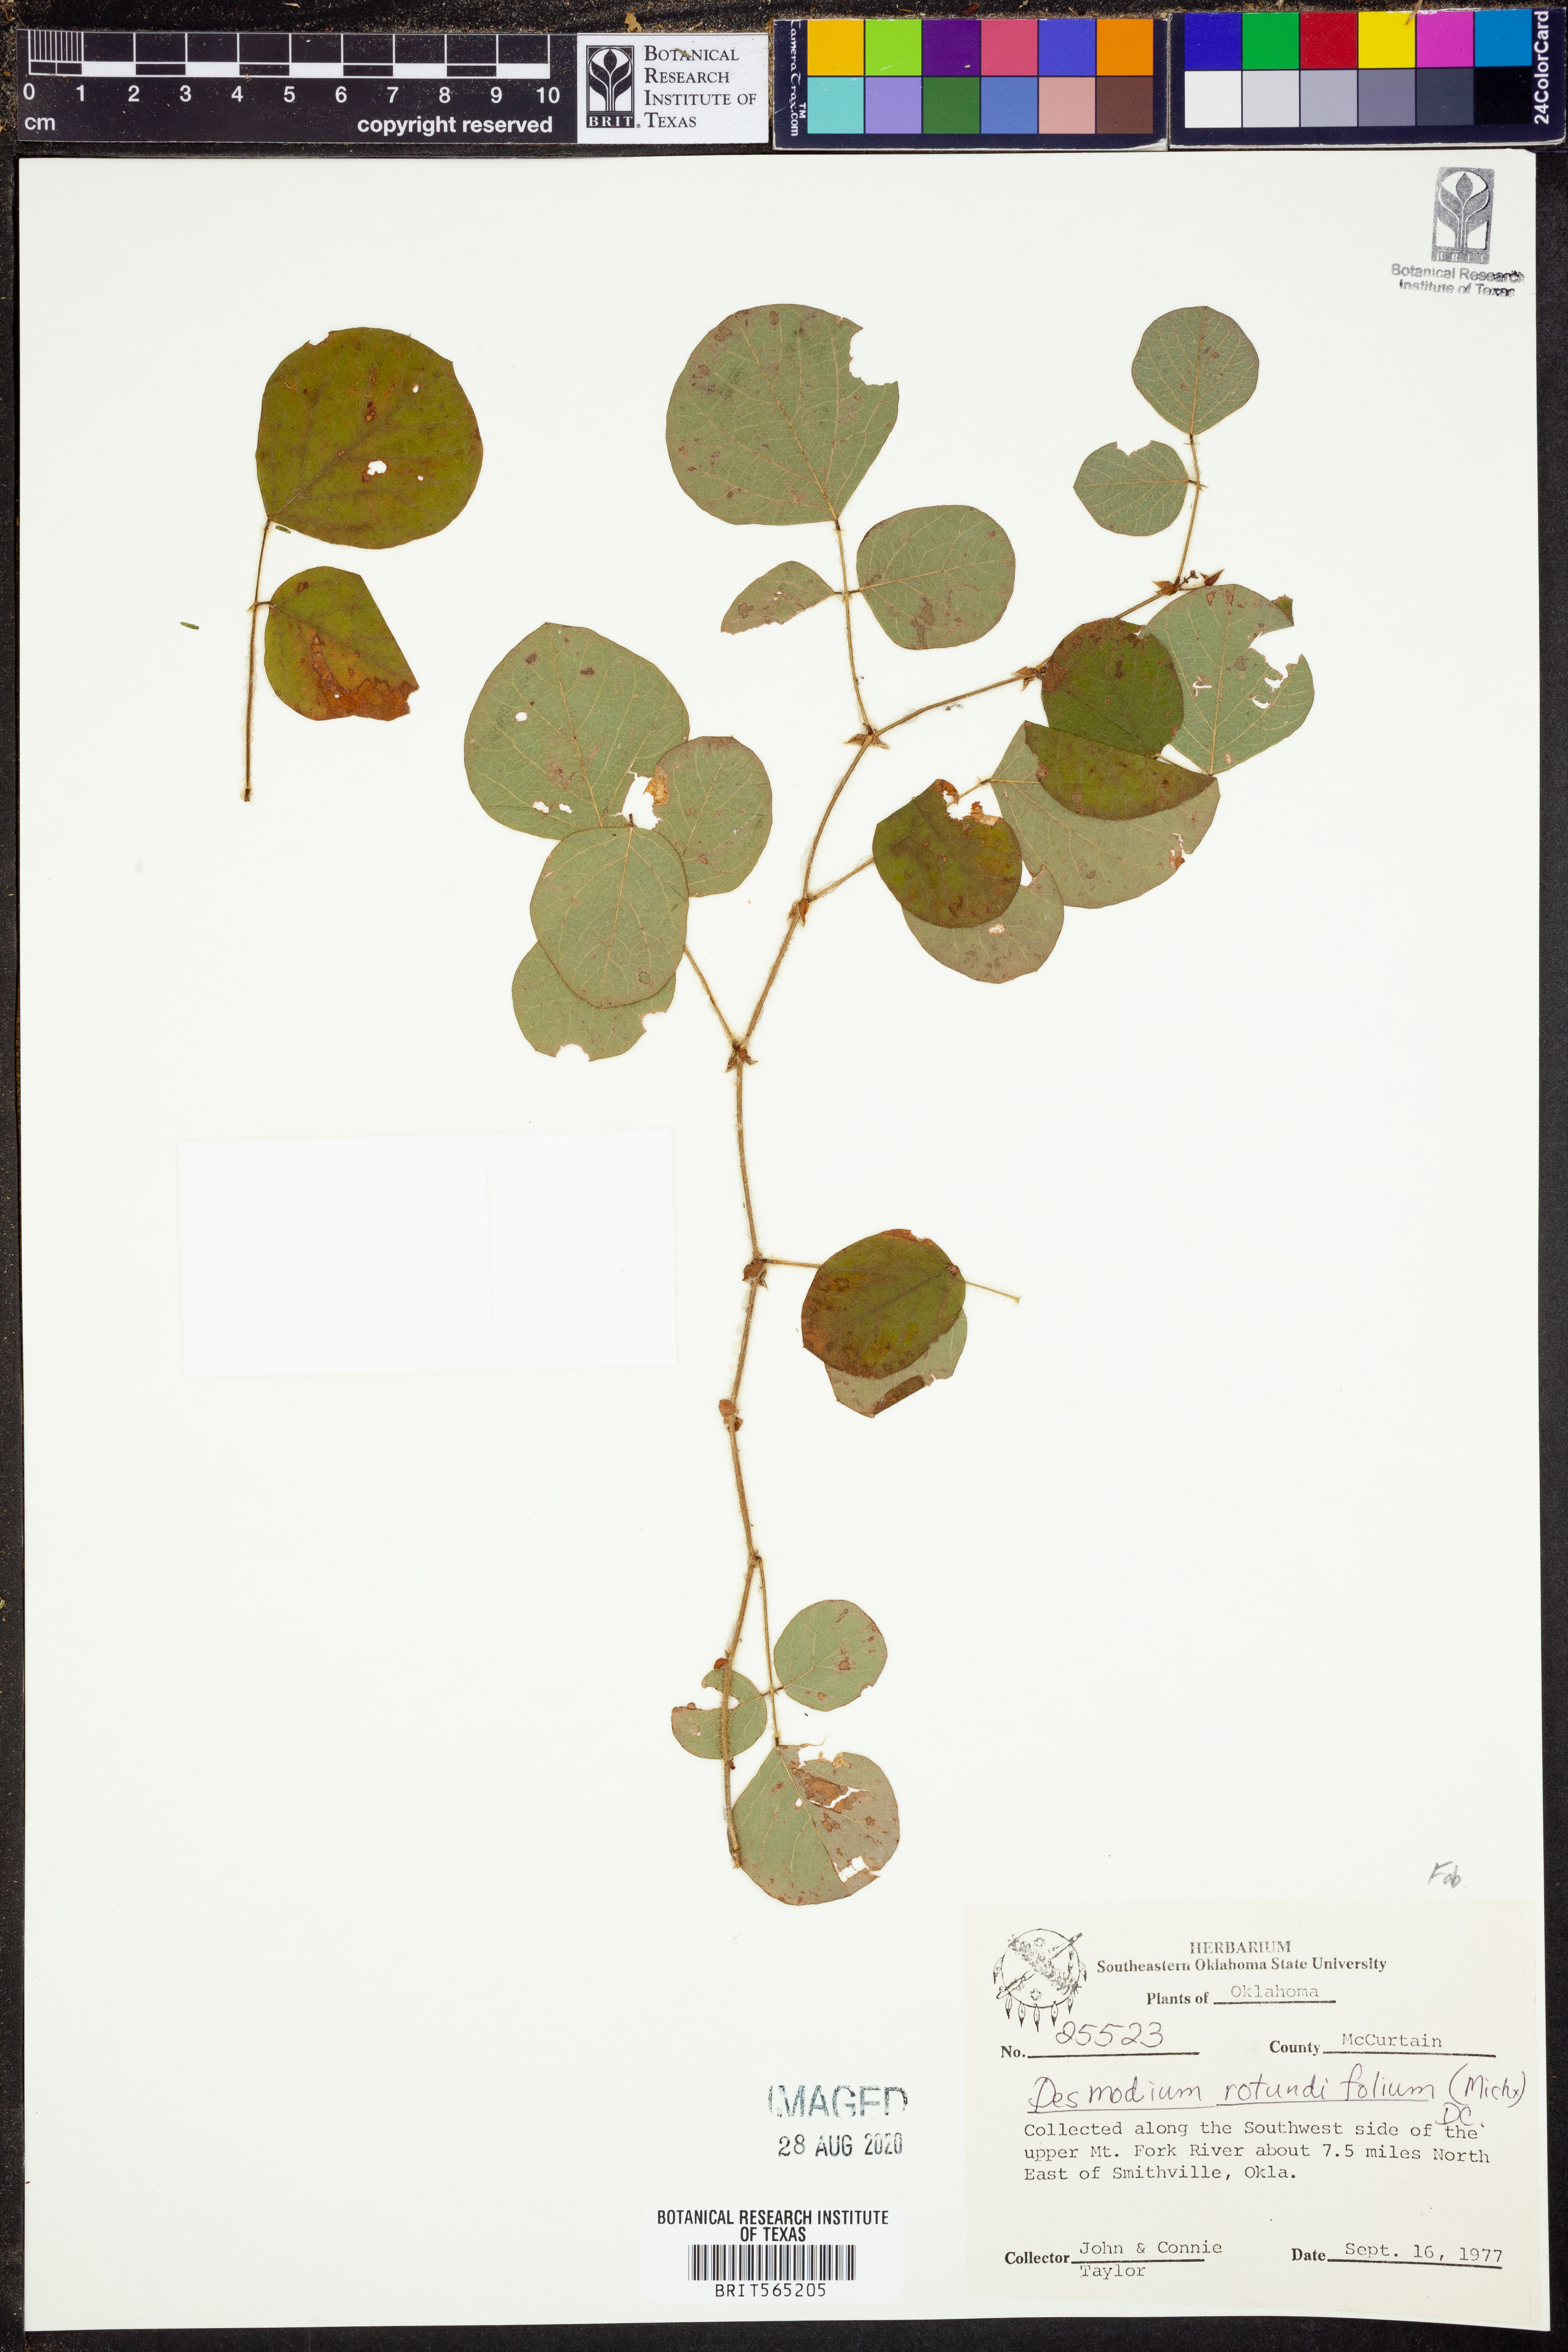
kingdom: Plantae
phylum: Tracheophyta
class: Magnoliopsida
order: Fabales
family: Fabaceae
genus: Desmodium
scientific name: Desmodium rotundifolium
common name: Dollarleaf
